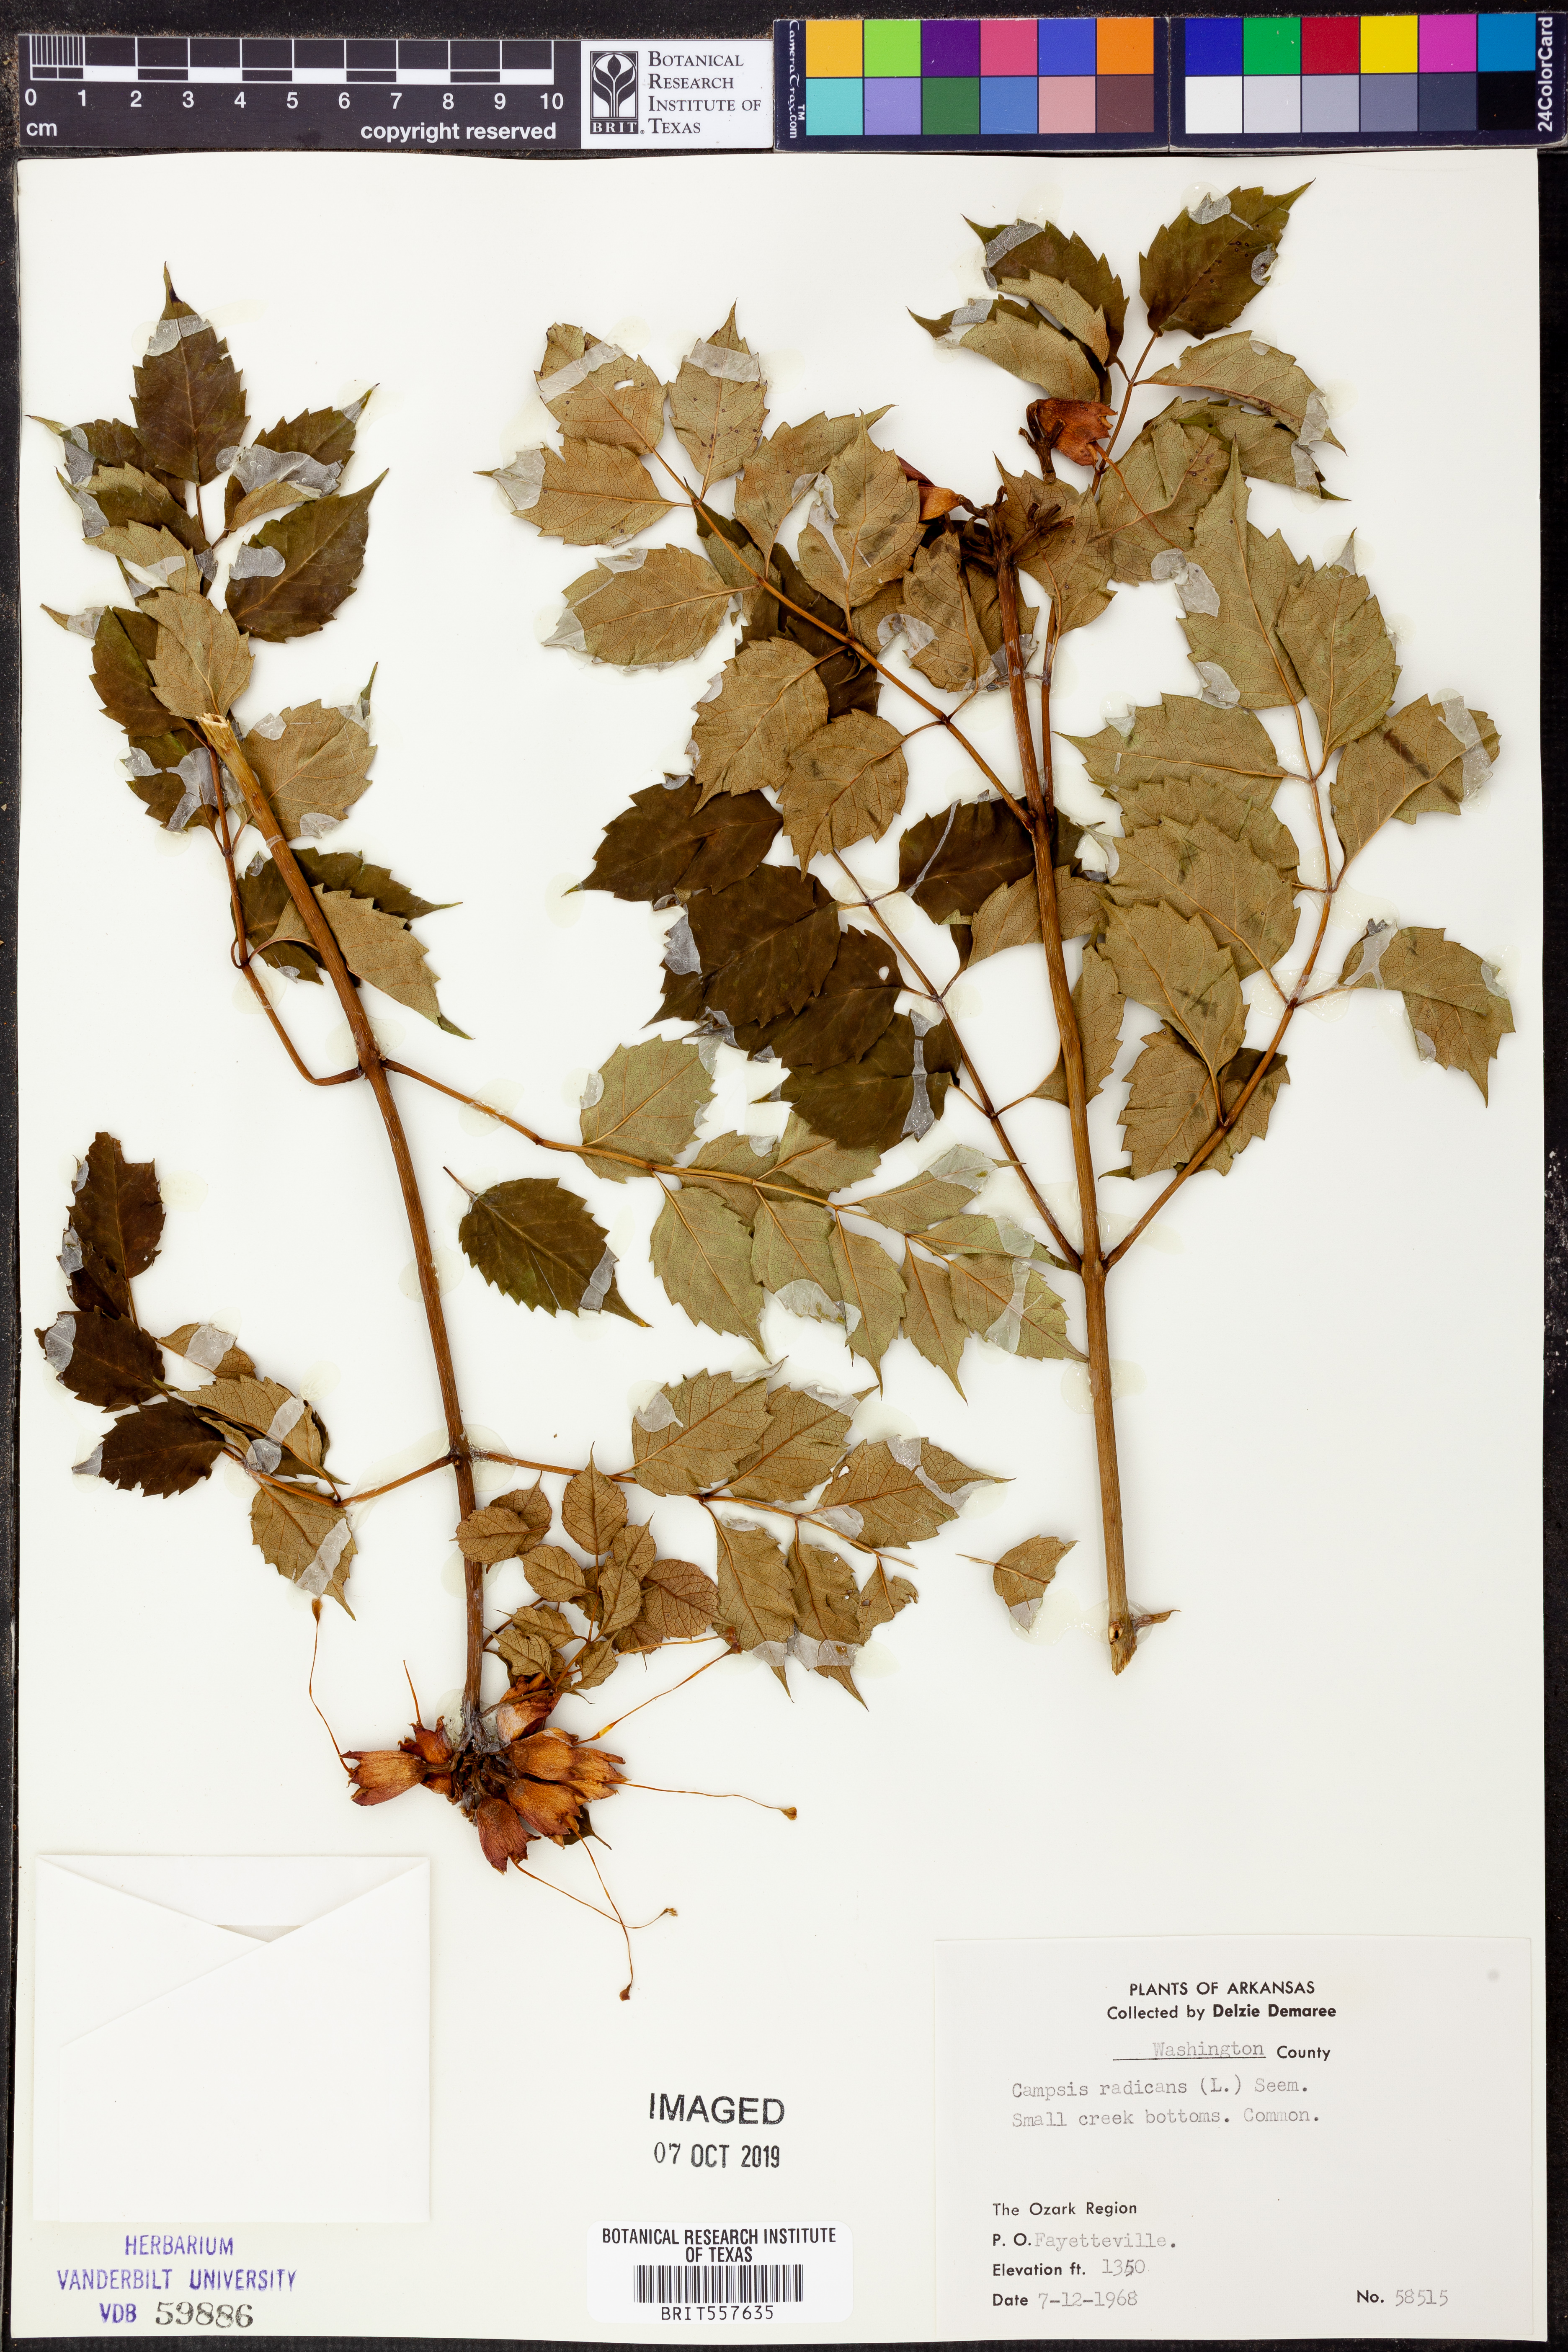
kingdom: Plantae
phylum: Tracheophyta
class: Magnoliopsida
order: Lamiales
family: Bignoniaceae
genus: Campsis
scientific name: Campsis radicans
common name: Trumpet-creeper
